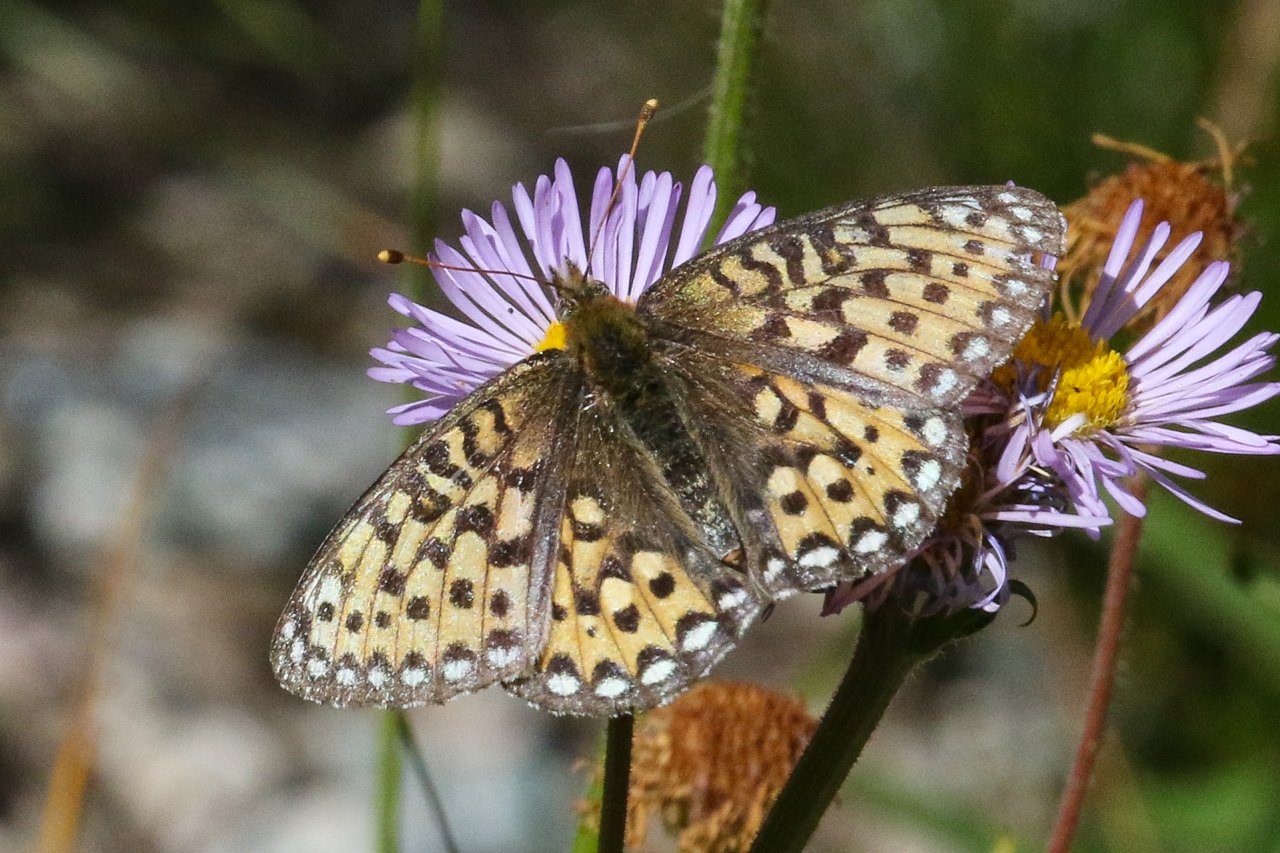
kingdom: Animalia
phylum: Arthropoda
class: Insecta
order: Lepidoptera
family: Nymphalidae
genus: Speyeria
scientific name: Speyeria mormonia
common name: Mormon Fritillary
